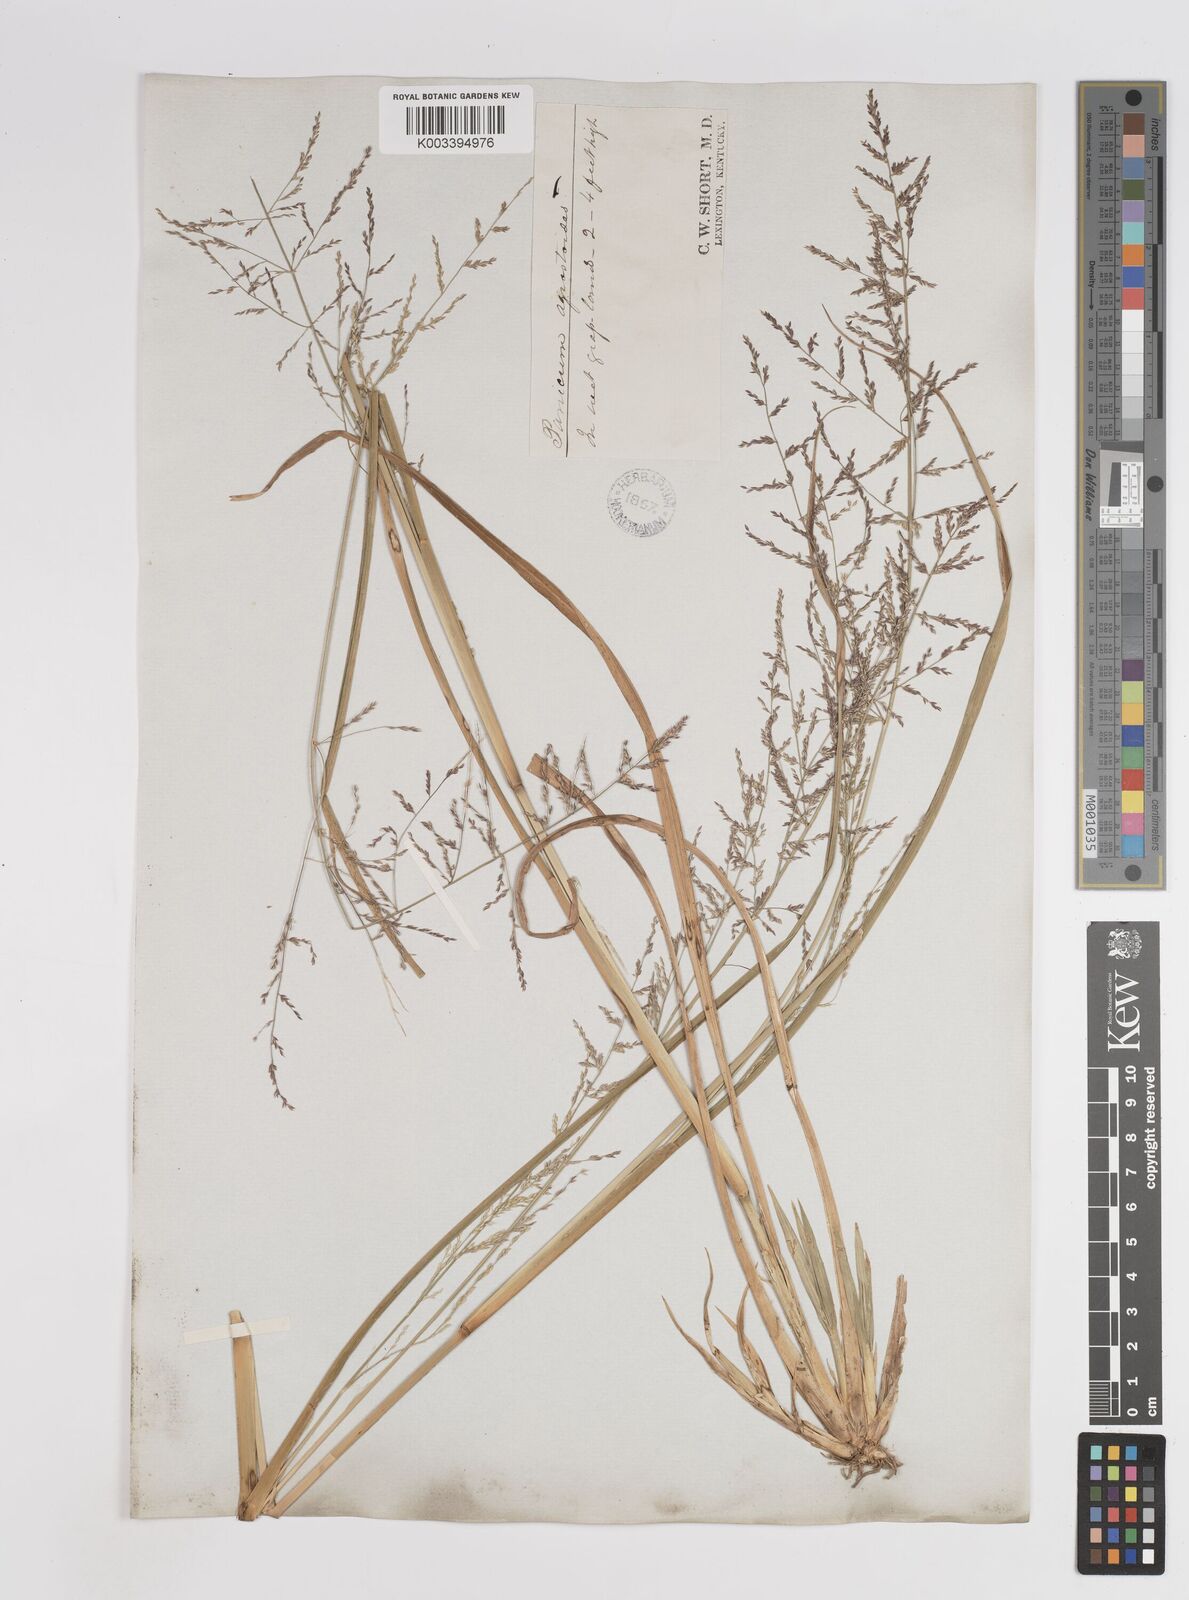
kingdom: Plantae
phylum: Tracheophyta
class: Liliopsida
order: Poales
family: Poaceae
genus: Steinchisma
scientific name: Steinchisma laxum
